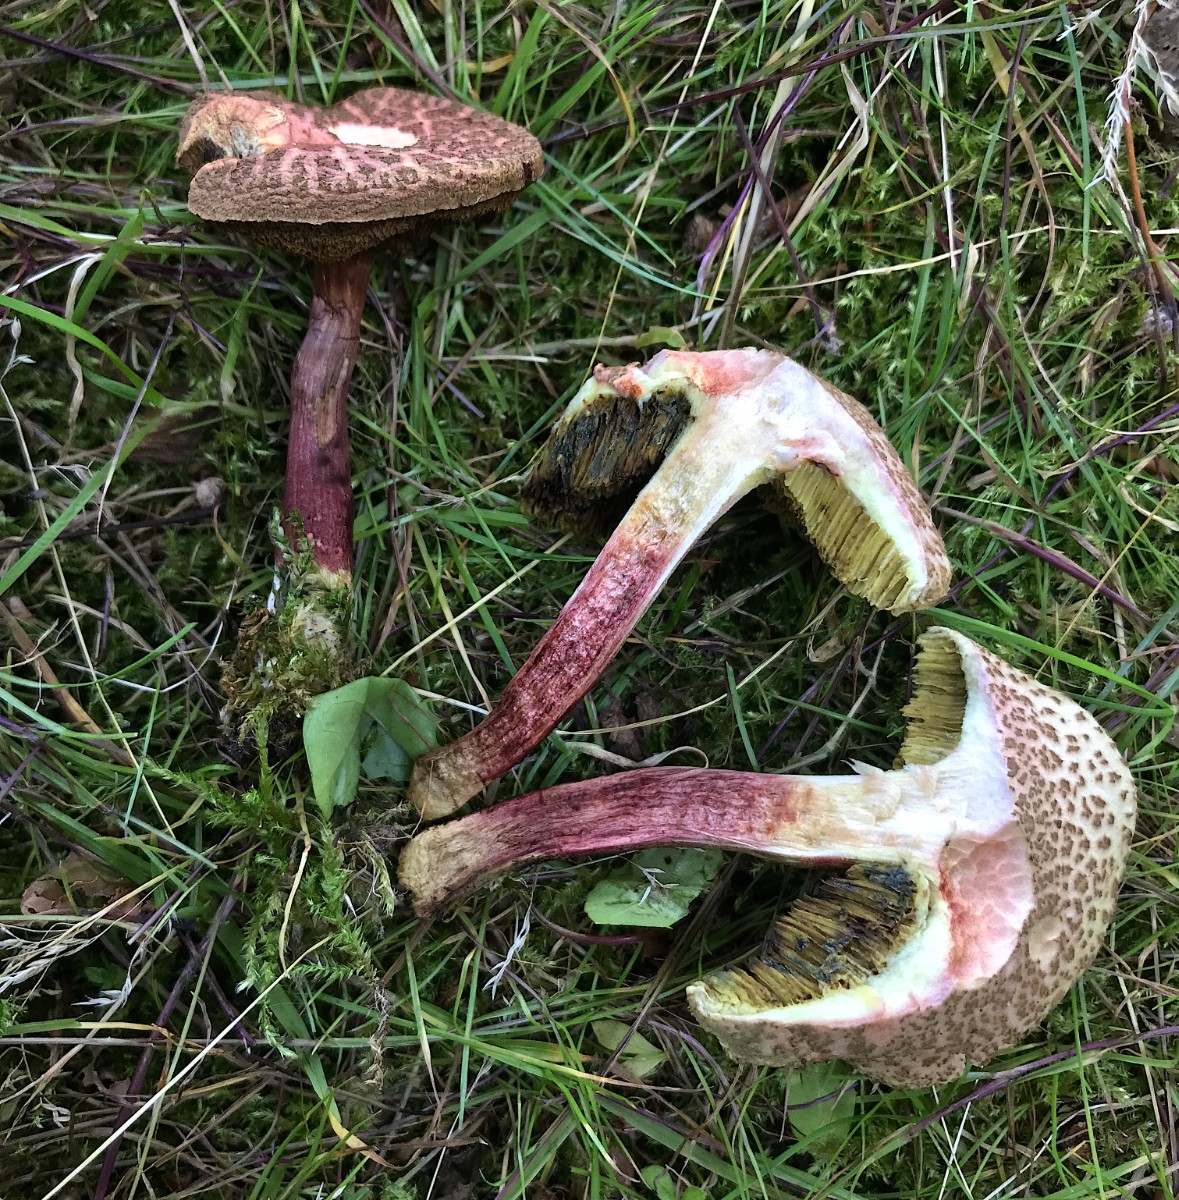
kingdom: Fungi
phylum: Basidiomycota
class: Agaricomycetes
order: Boletales
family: Boletaceae
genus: Xerocomellus
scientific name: Xerocomellus chrysenteron
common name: rødsprukken rørhat
